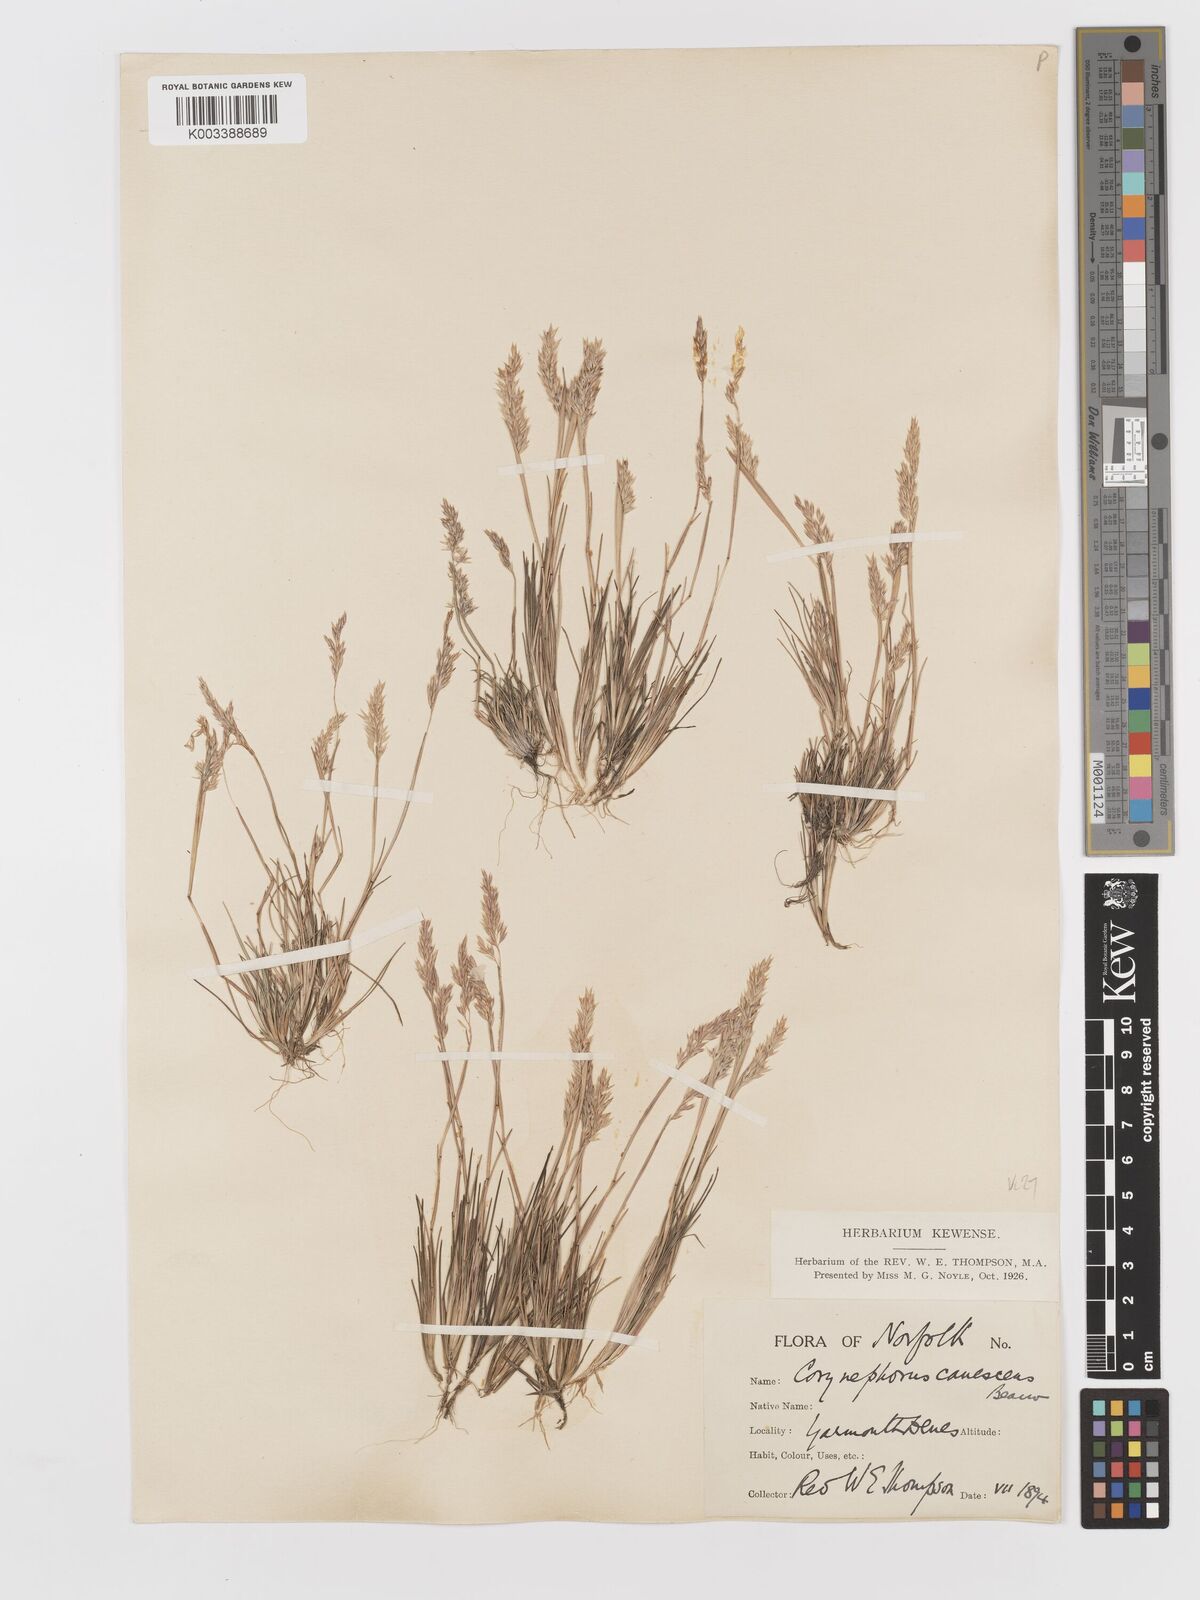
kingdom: Plantae
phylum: Tracheophyta
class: Liliopsida
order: Poales
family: Poaceae
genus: Corynephorus
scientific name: Corynephorus canescens
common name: Grey hair-grass
